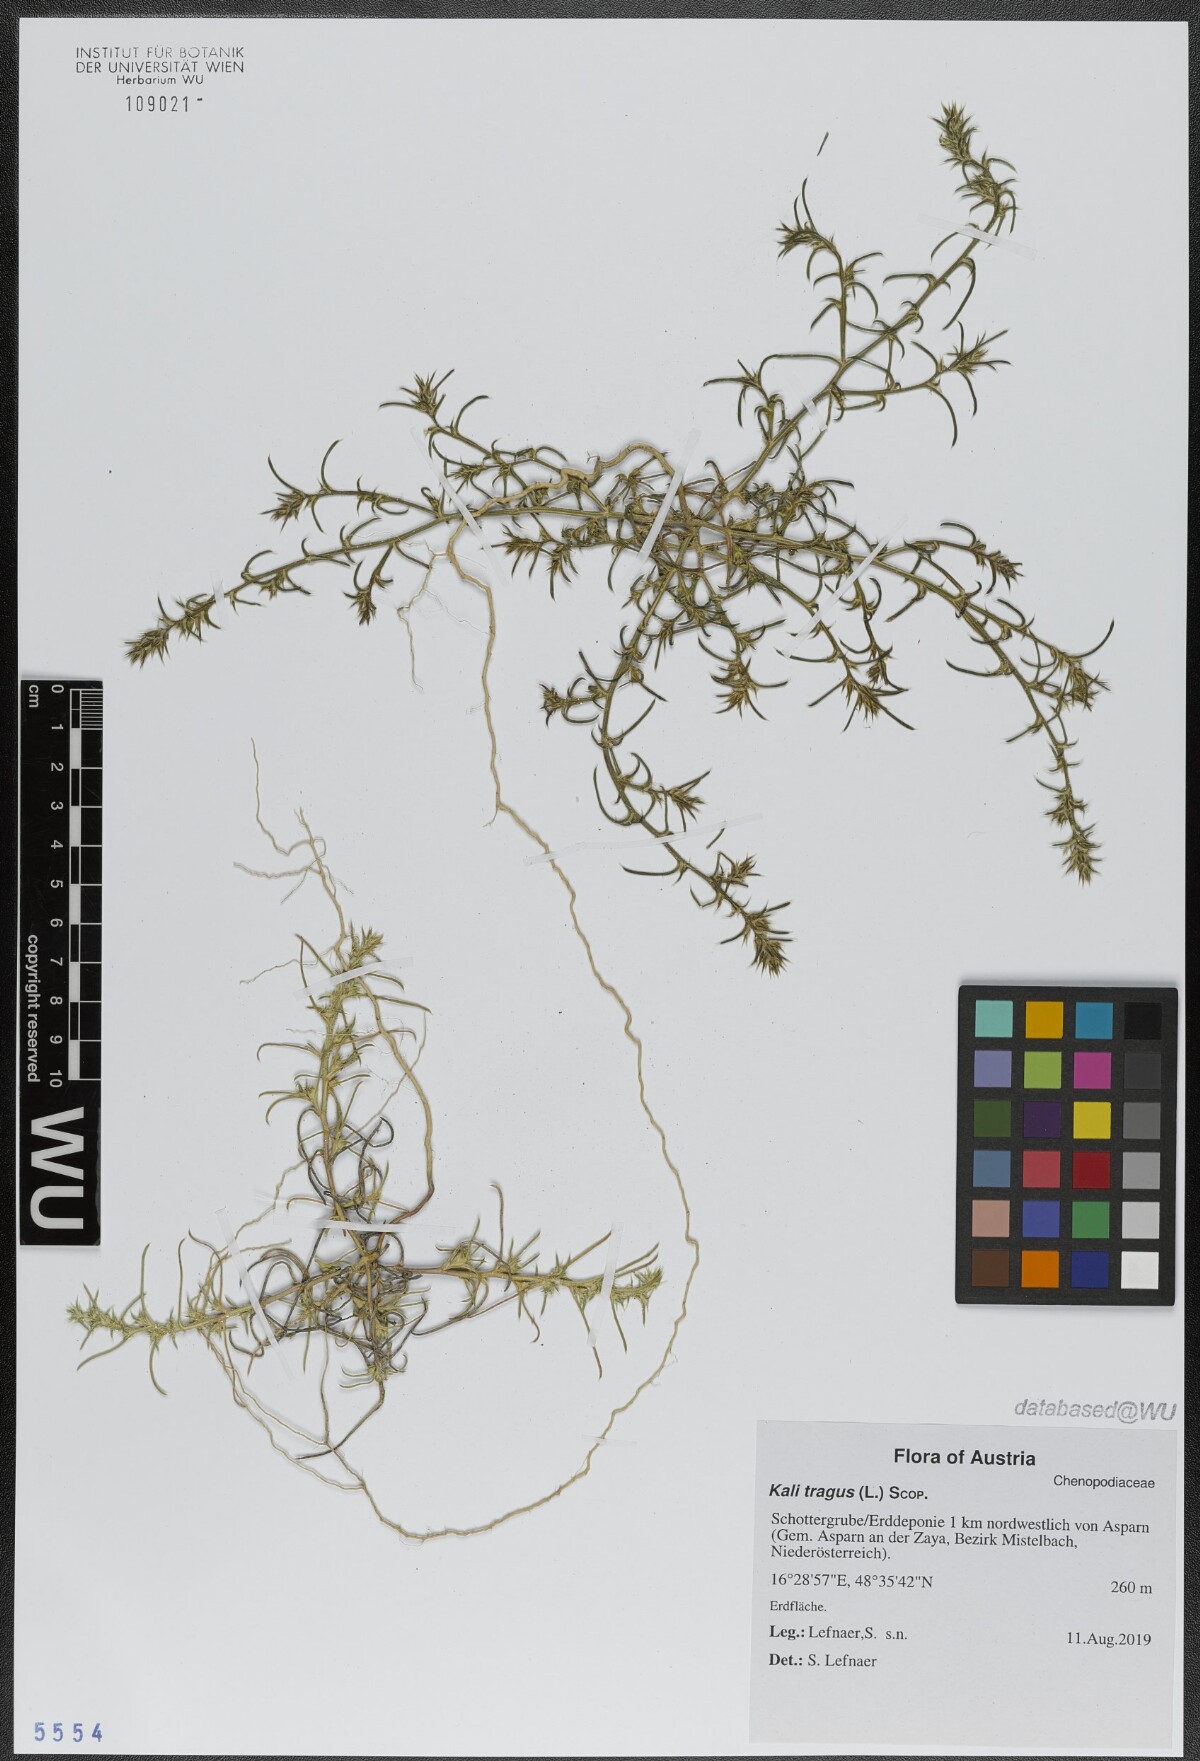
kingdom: Plantae
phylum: Tracheophyta
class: Magnoliopsida
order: Caryophyllales
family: Amaranthaceae
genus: Salsola
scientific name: Salsola tragus
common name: Prickly russian thistle
